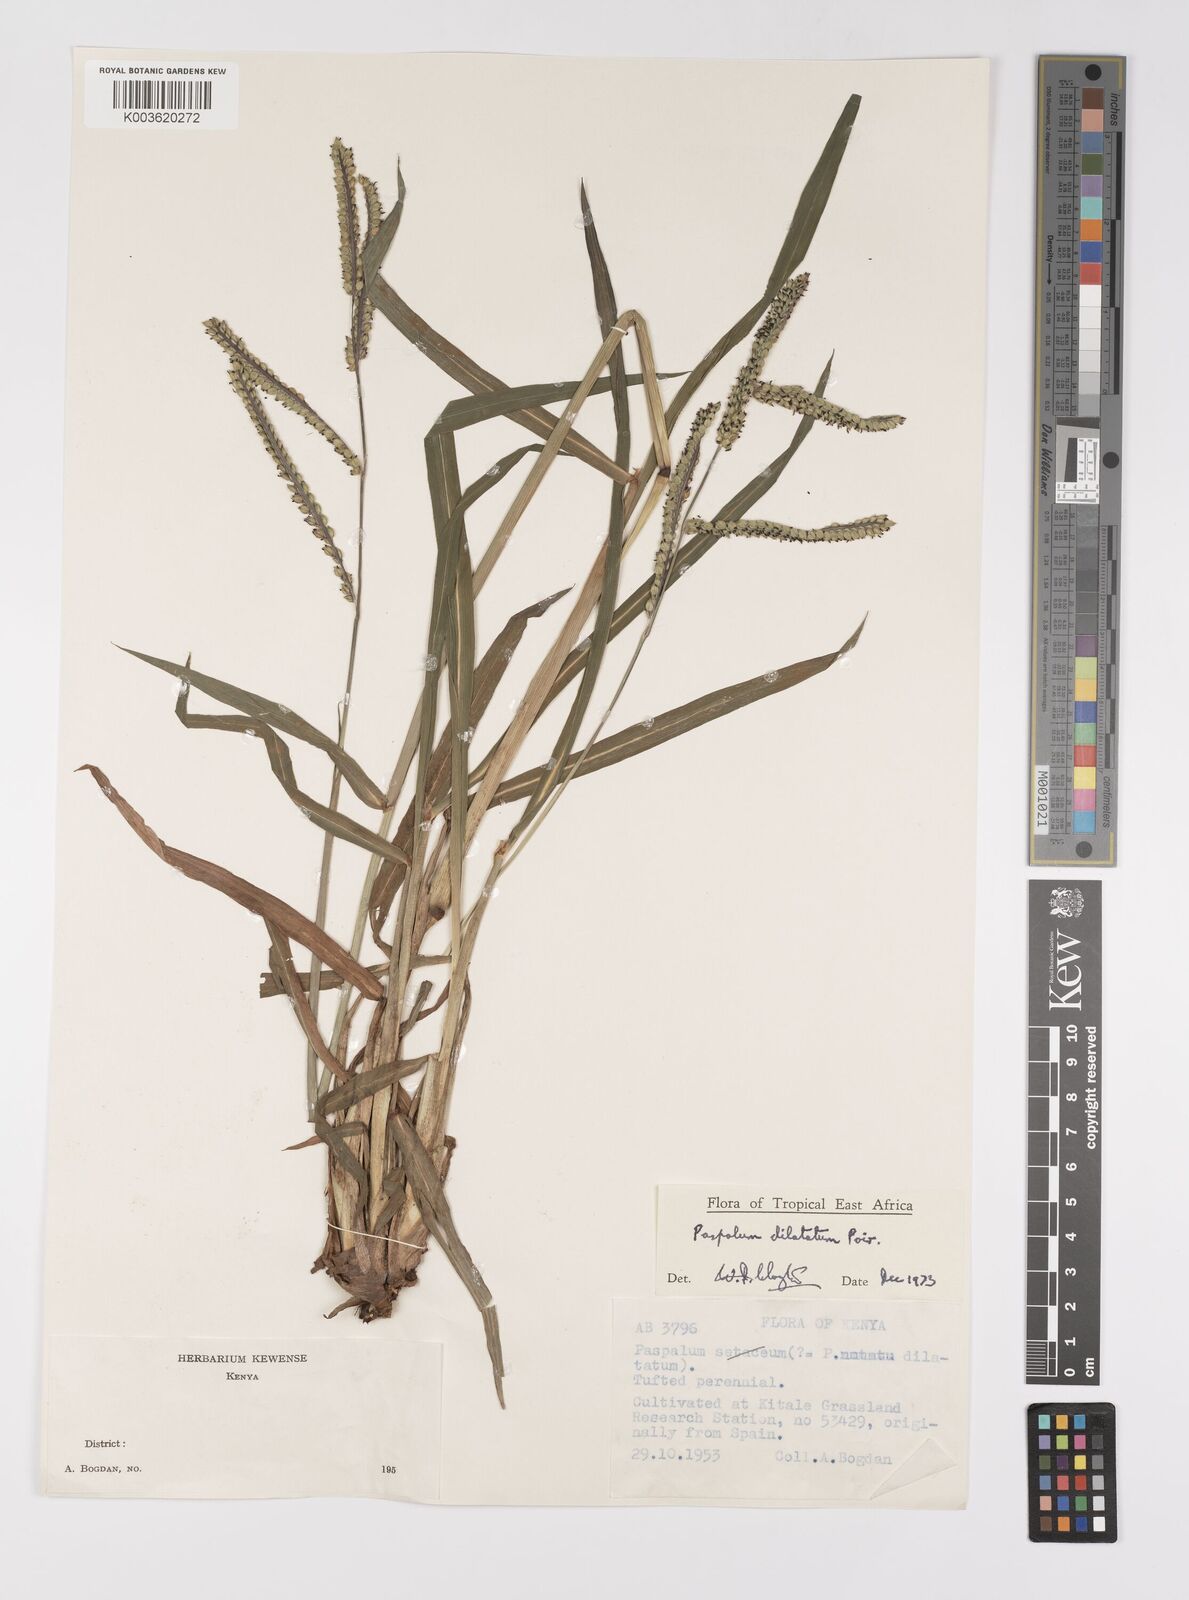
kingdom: Plantae
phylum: Tracheophyta
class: Liliopsida
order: Poales
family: Poaceae
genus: Paspalum
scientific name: Paspalum dilatatum
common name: Dallisgrass
